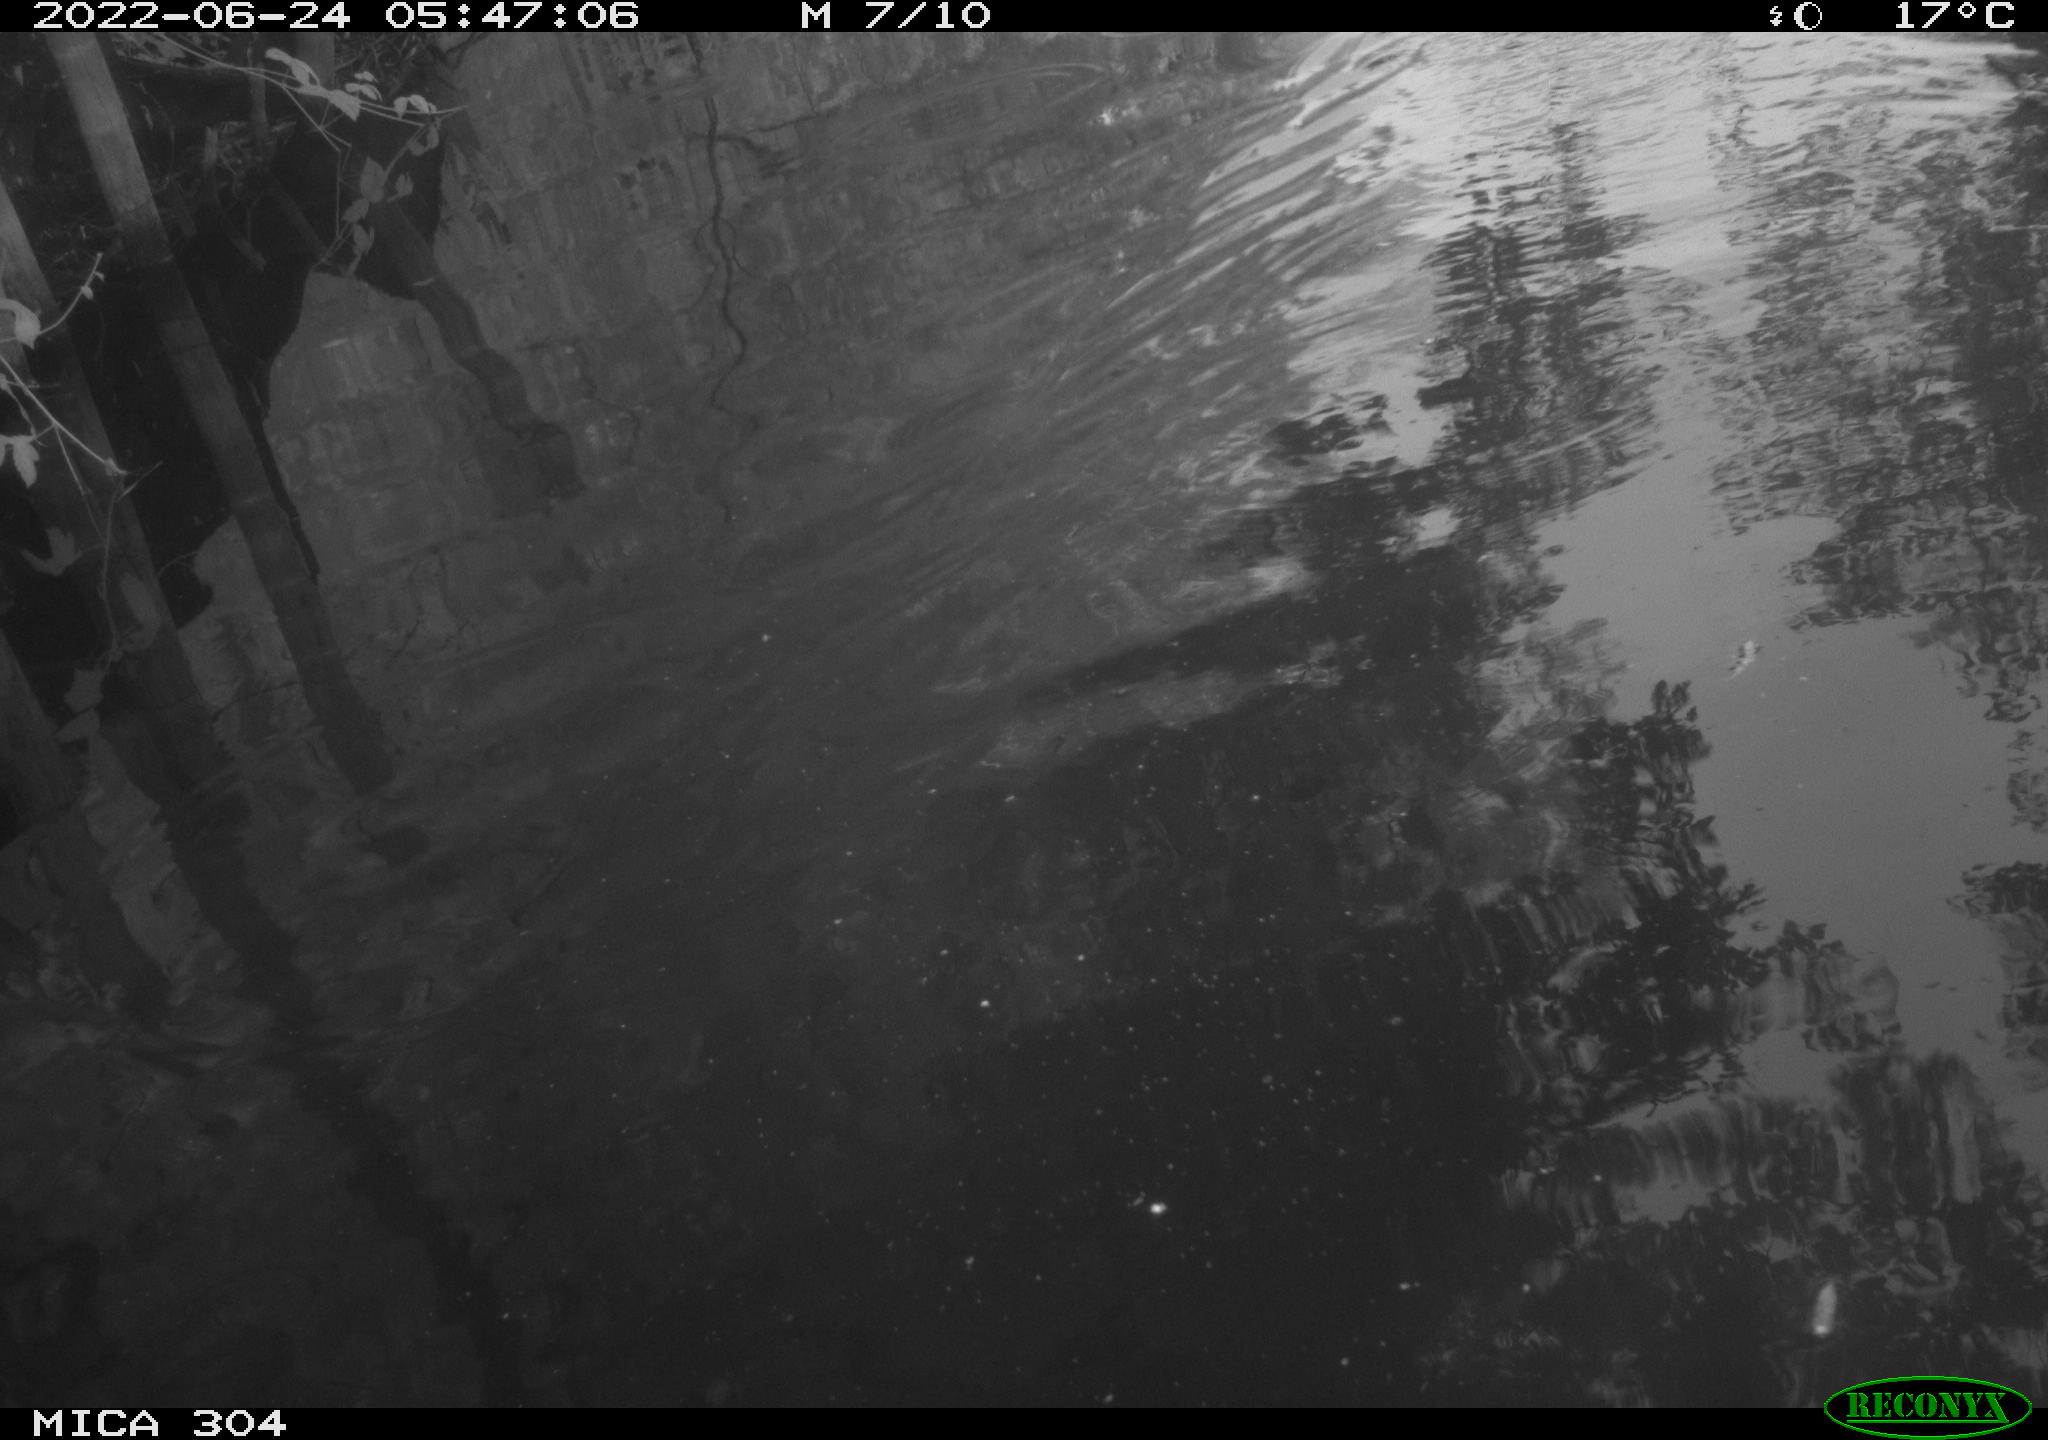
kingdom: Animalia
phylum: Chordata
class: Aves
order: Anseriformes
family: Anatidae
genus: Anas
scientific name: Anas platyrhynchos
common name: Mallard
